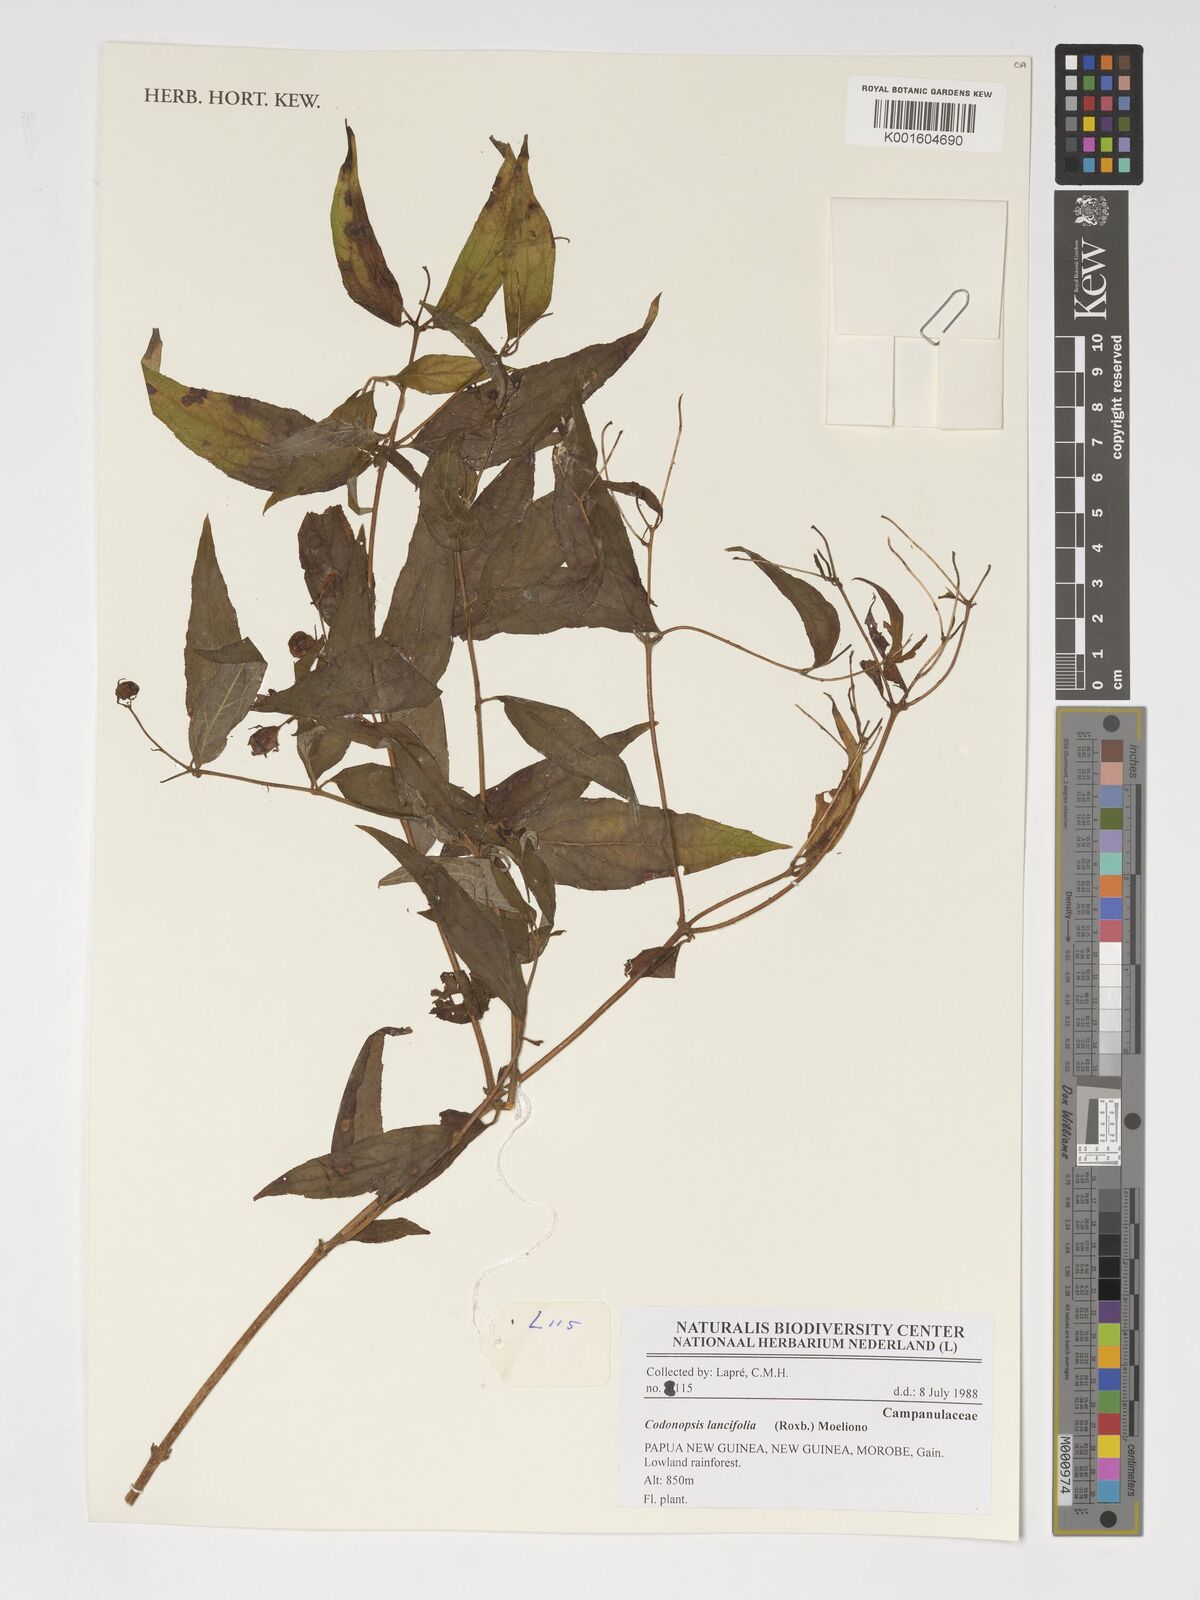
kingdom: Plantae
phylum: Tracheophyta
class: Magnoliopsida
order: Asterales
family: Campanulaceae
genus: Cyclocodon
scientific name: Cyclocodon lancifolius
